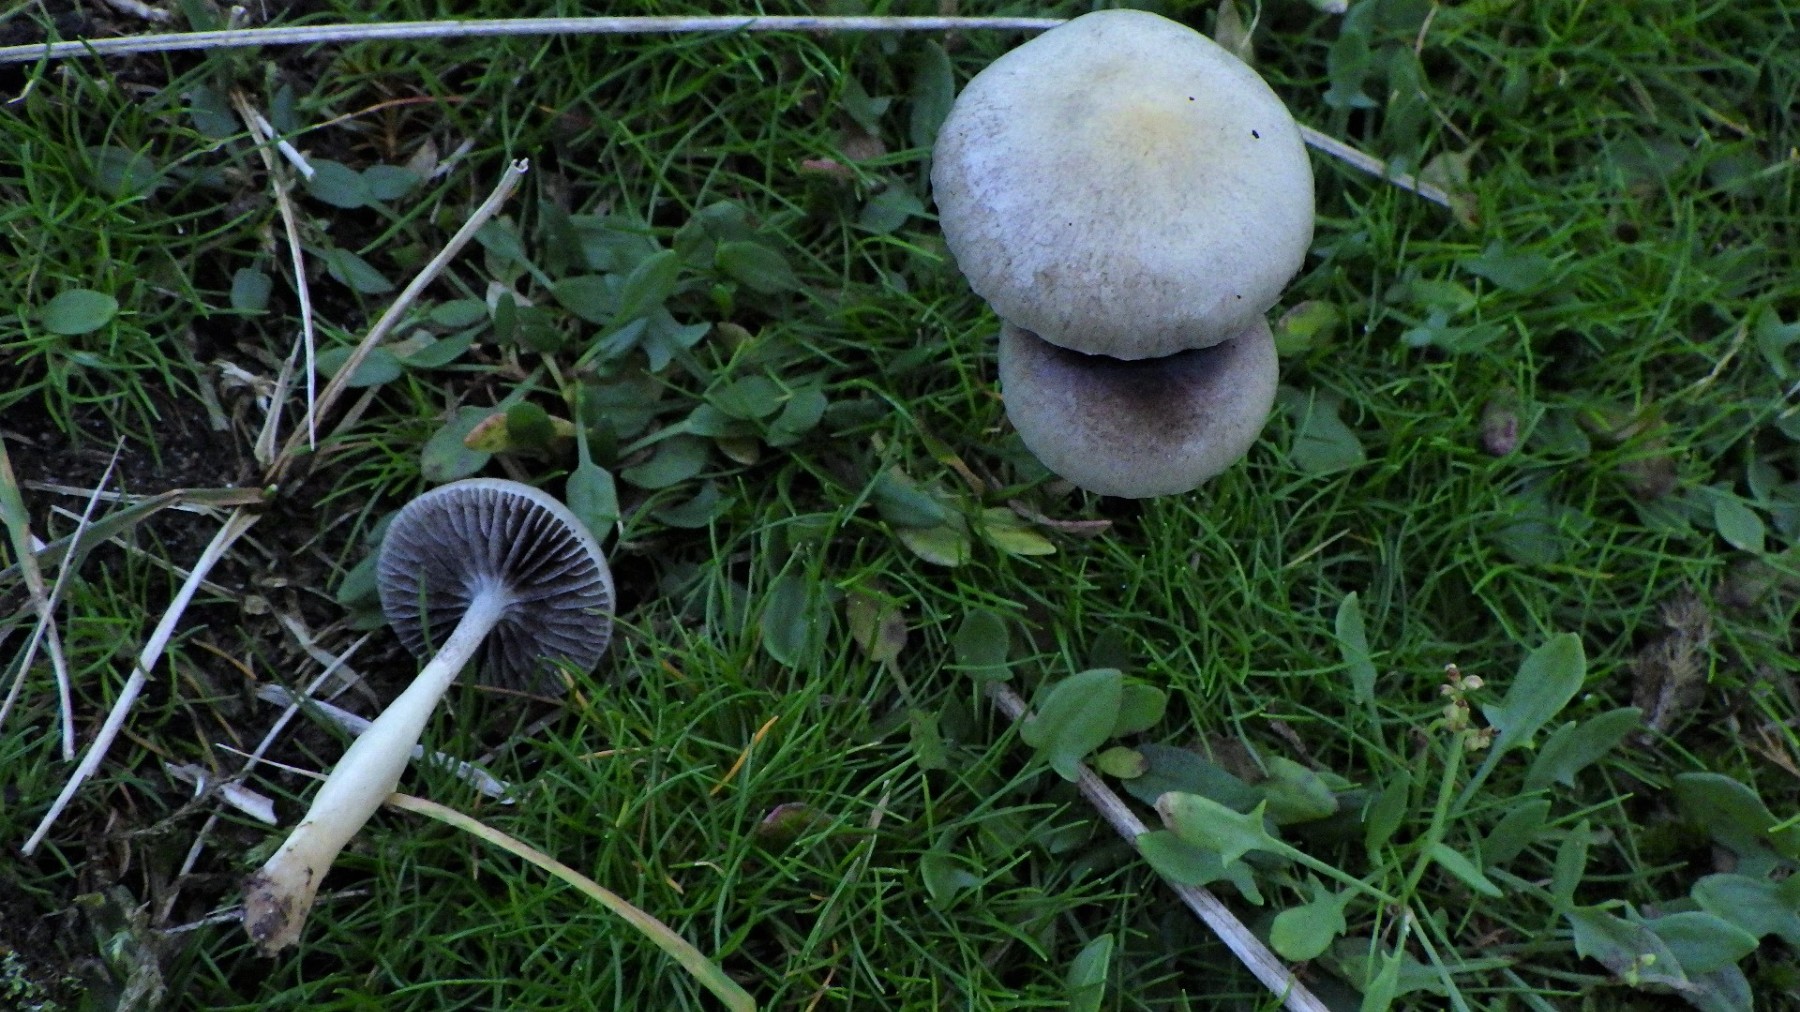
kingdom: Fungi
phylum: Basidiomycota
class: Agaricomycetes
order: Agaricales
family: Strophariaceae
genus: Protostropharia
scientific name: Protostropharia semiglobata
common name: halvkugleformet bredblad
